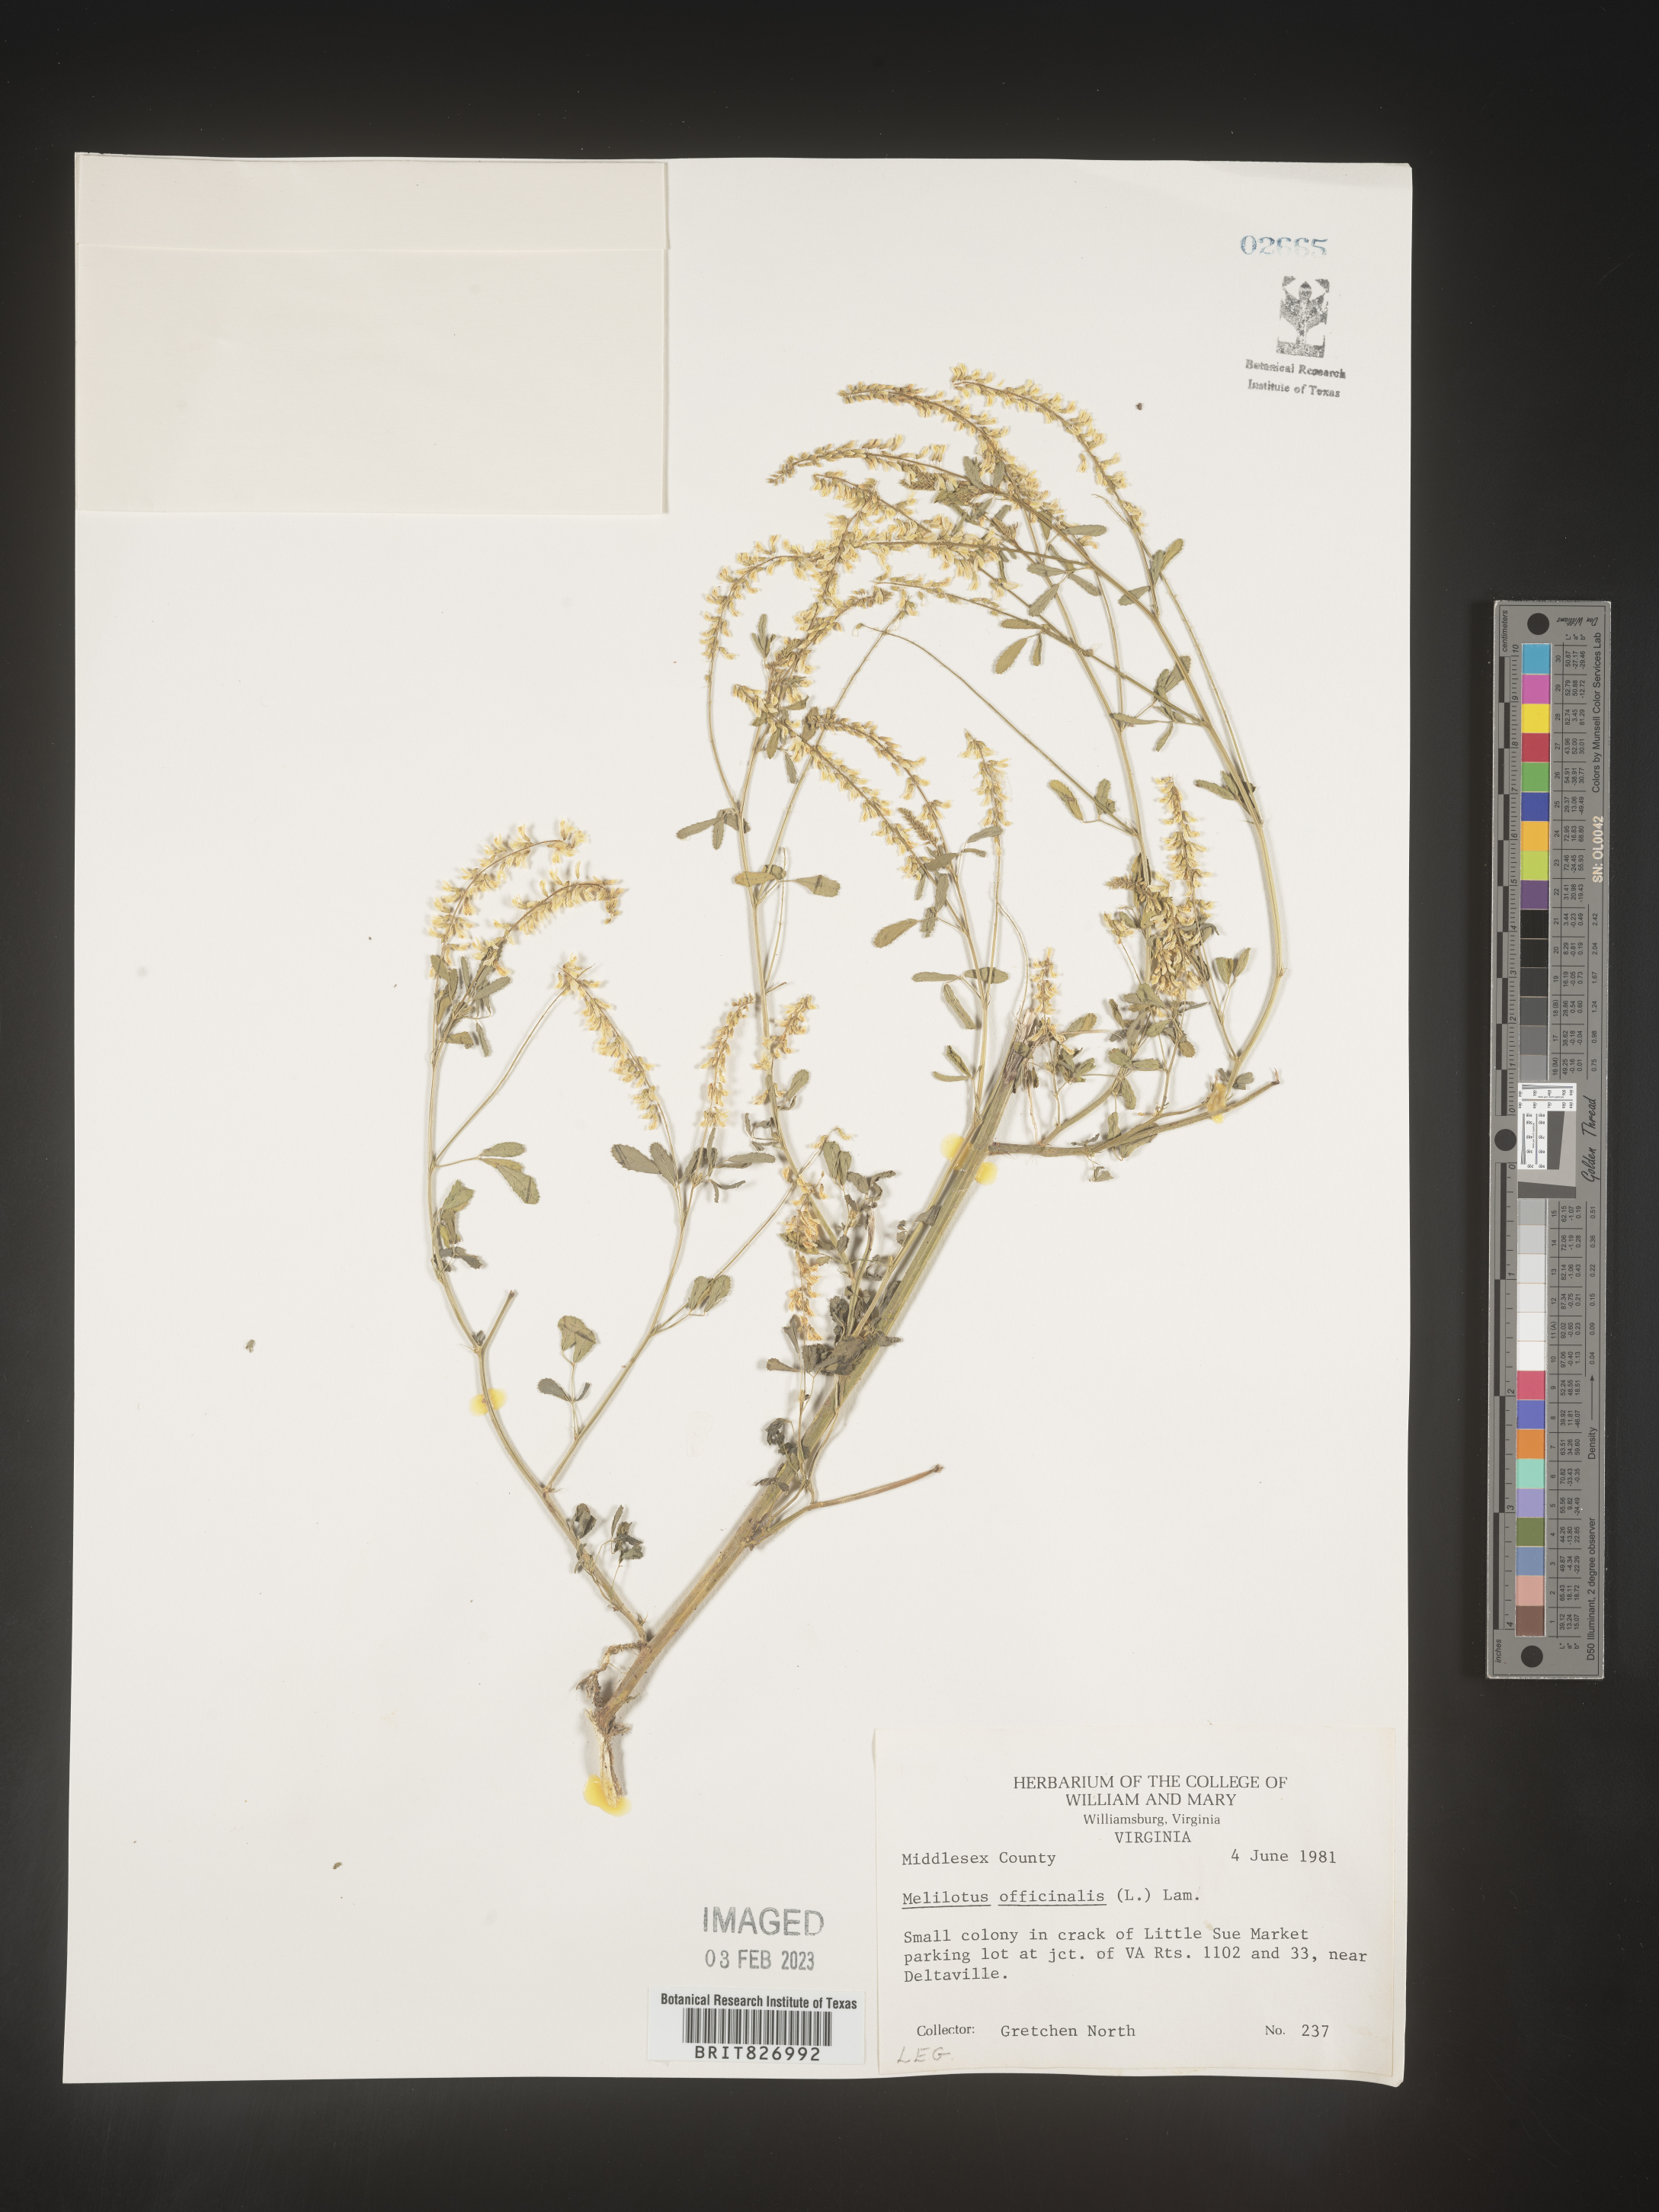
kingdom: Plantae
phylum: Tracheophyta
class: Magnoliopsida
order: Fabales
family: Fabaceae
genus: Melilotus
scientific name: Melilotus officinalis
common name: Sweetclover
